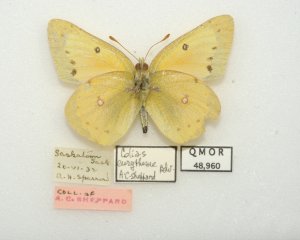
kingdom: Animalia
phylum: Arthropoda
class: Insecta
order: Lepidoptera
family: Pieridae
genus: Colias
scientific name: Colias eurytheme
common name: Orange Sulphur
